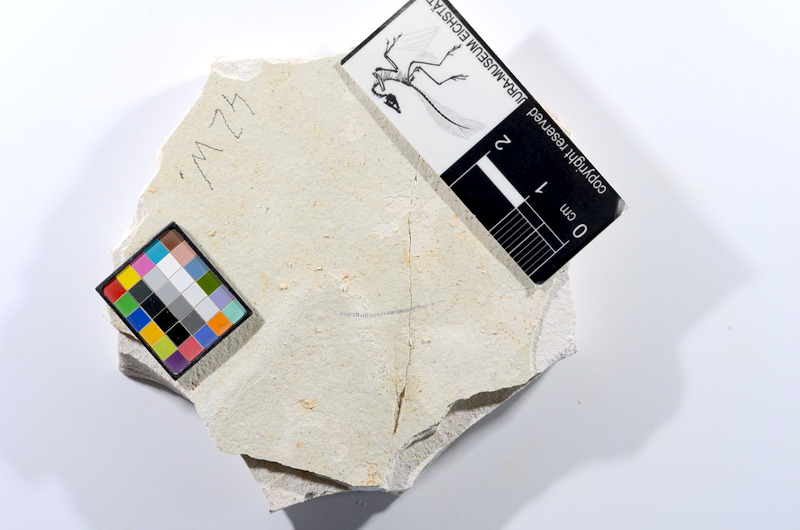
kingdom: Animalia
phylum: Chordata
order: Salmoniformes
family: Orthogonikleithridae
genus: Orthogonikleithrus
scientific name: Orthogonikleithrus hoelli
